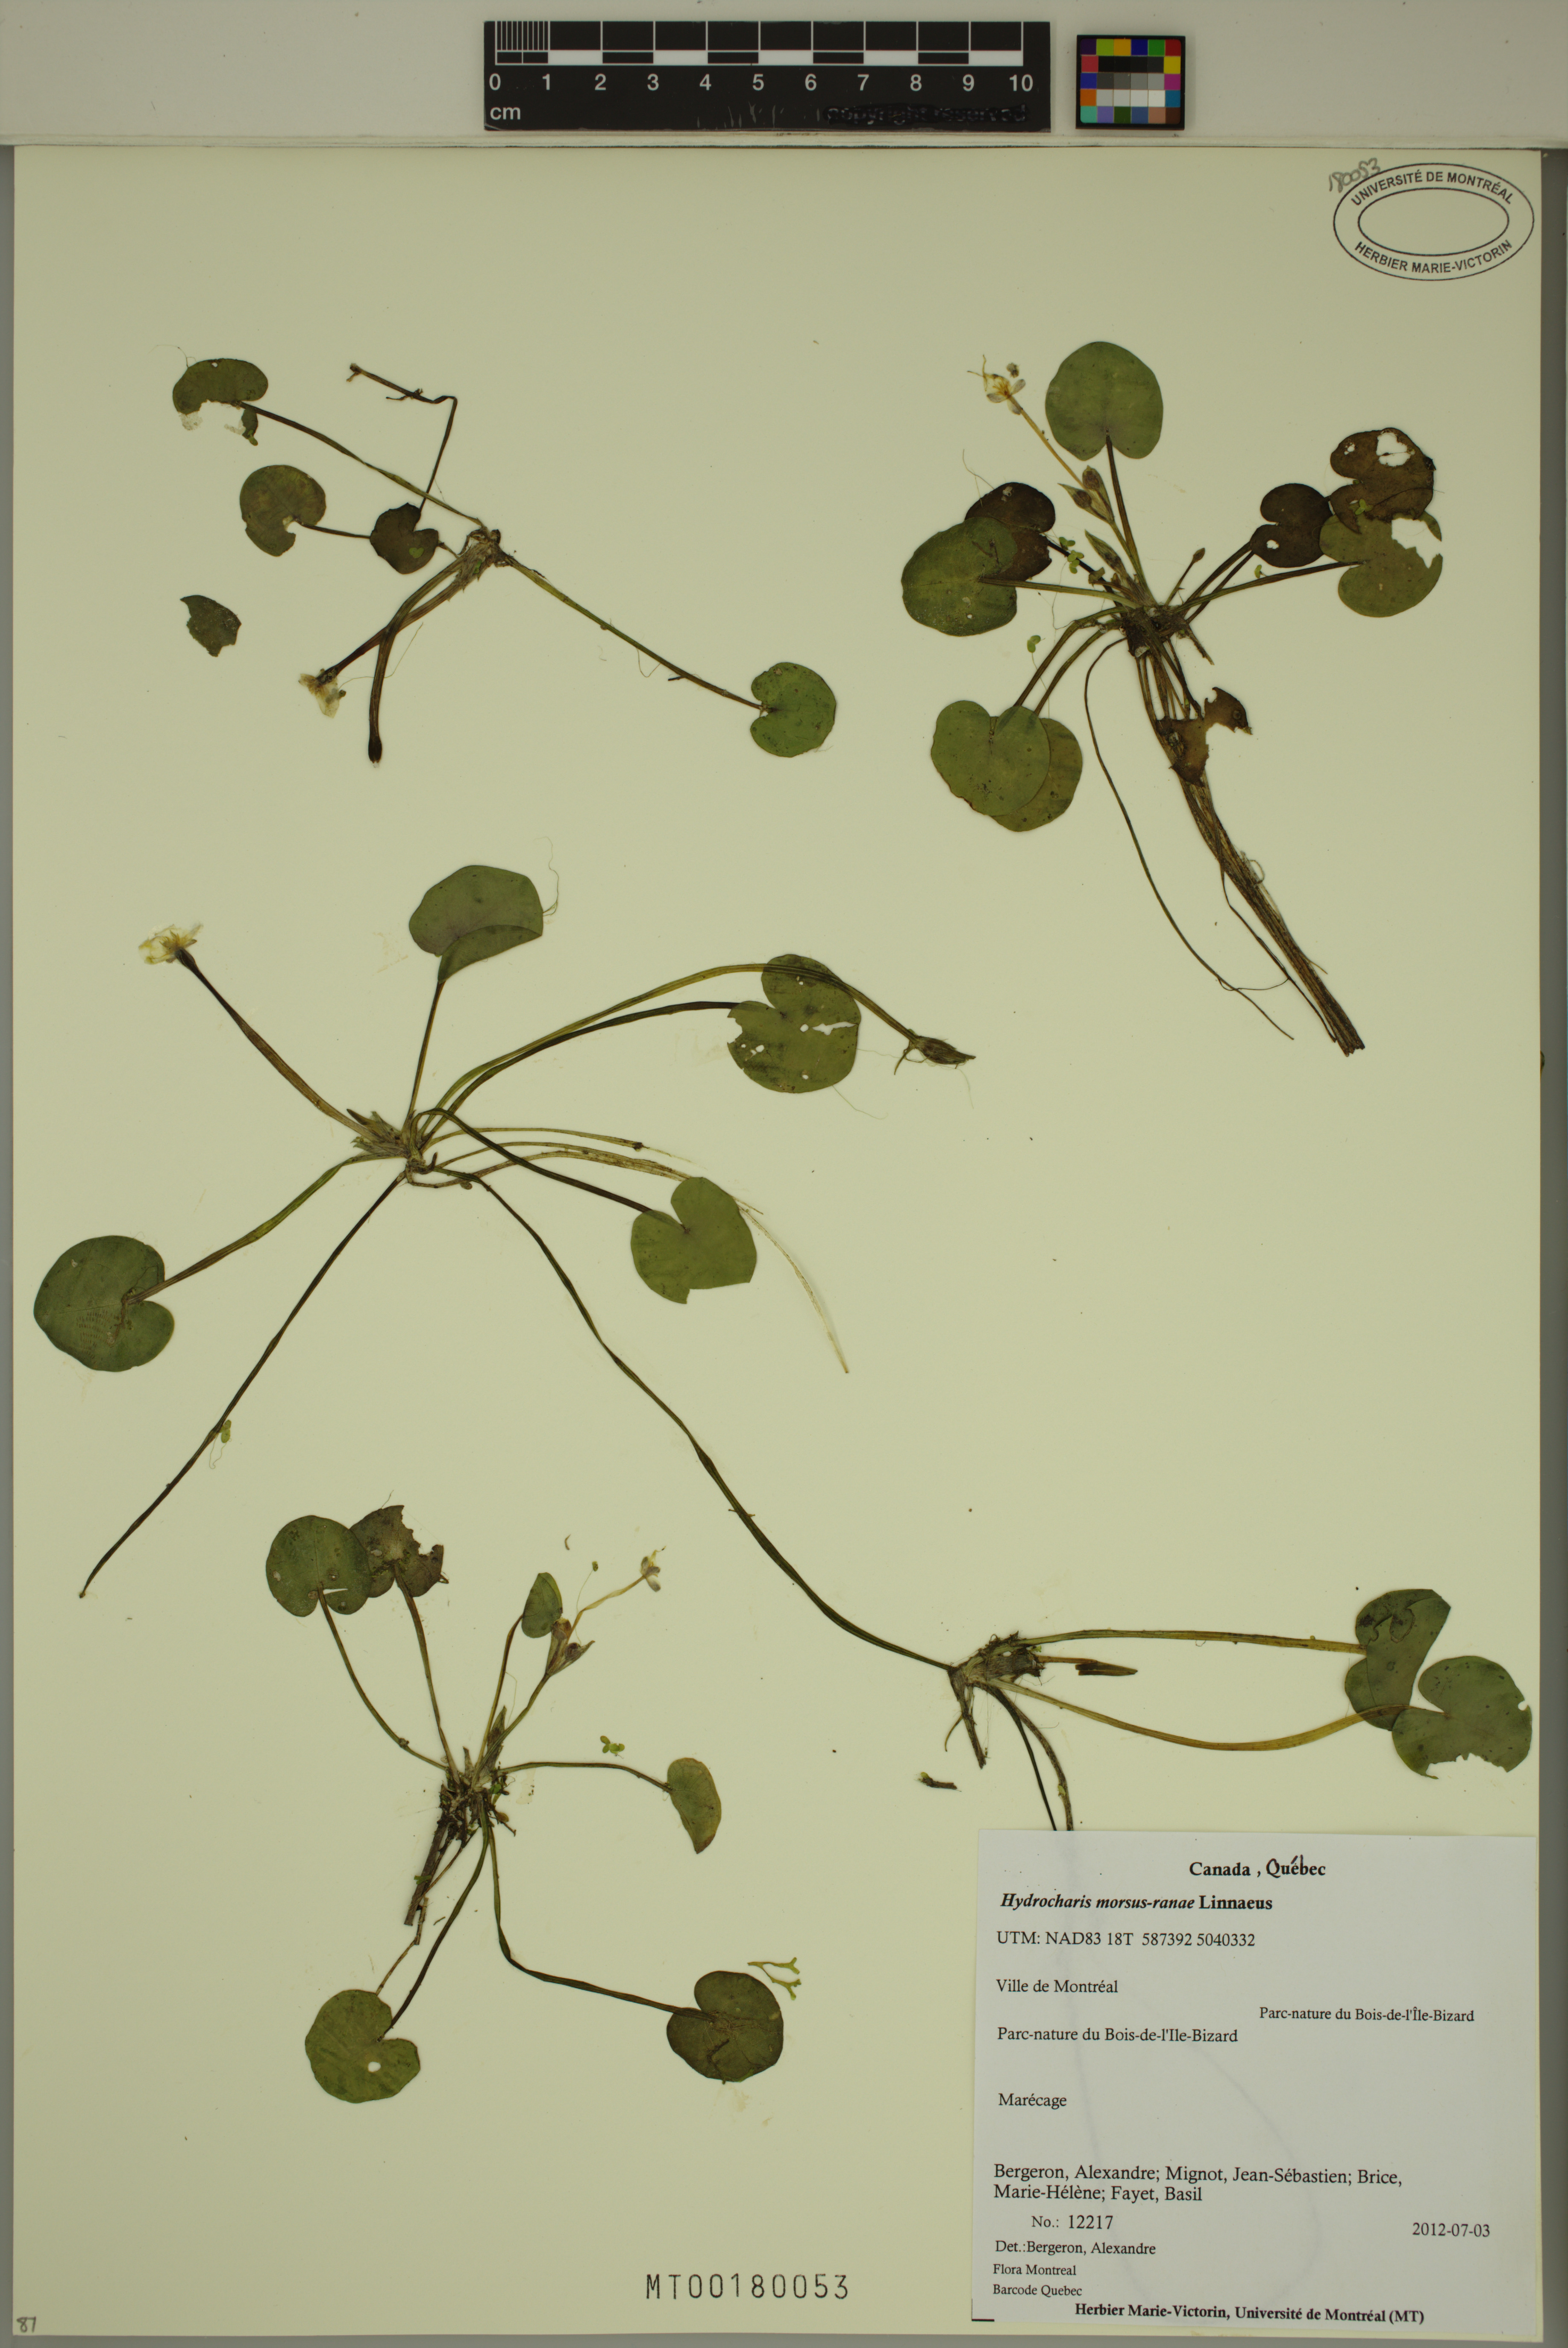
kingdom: Plantae
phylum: Tracheophyta
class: Liliopsida
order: Alismatales
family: Hydrocharitaceae
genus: Hydrocharis
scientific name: Hydrocharis morsus-ranae
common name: Frogbit
